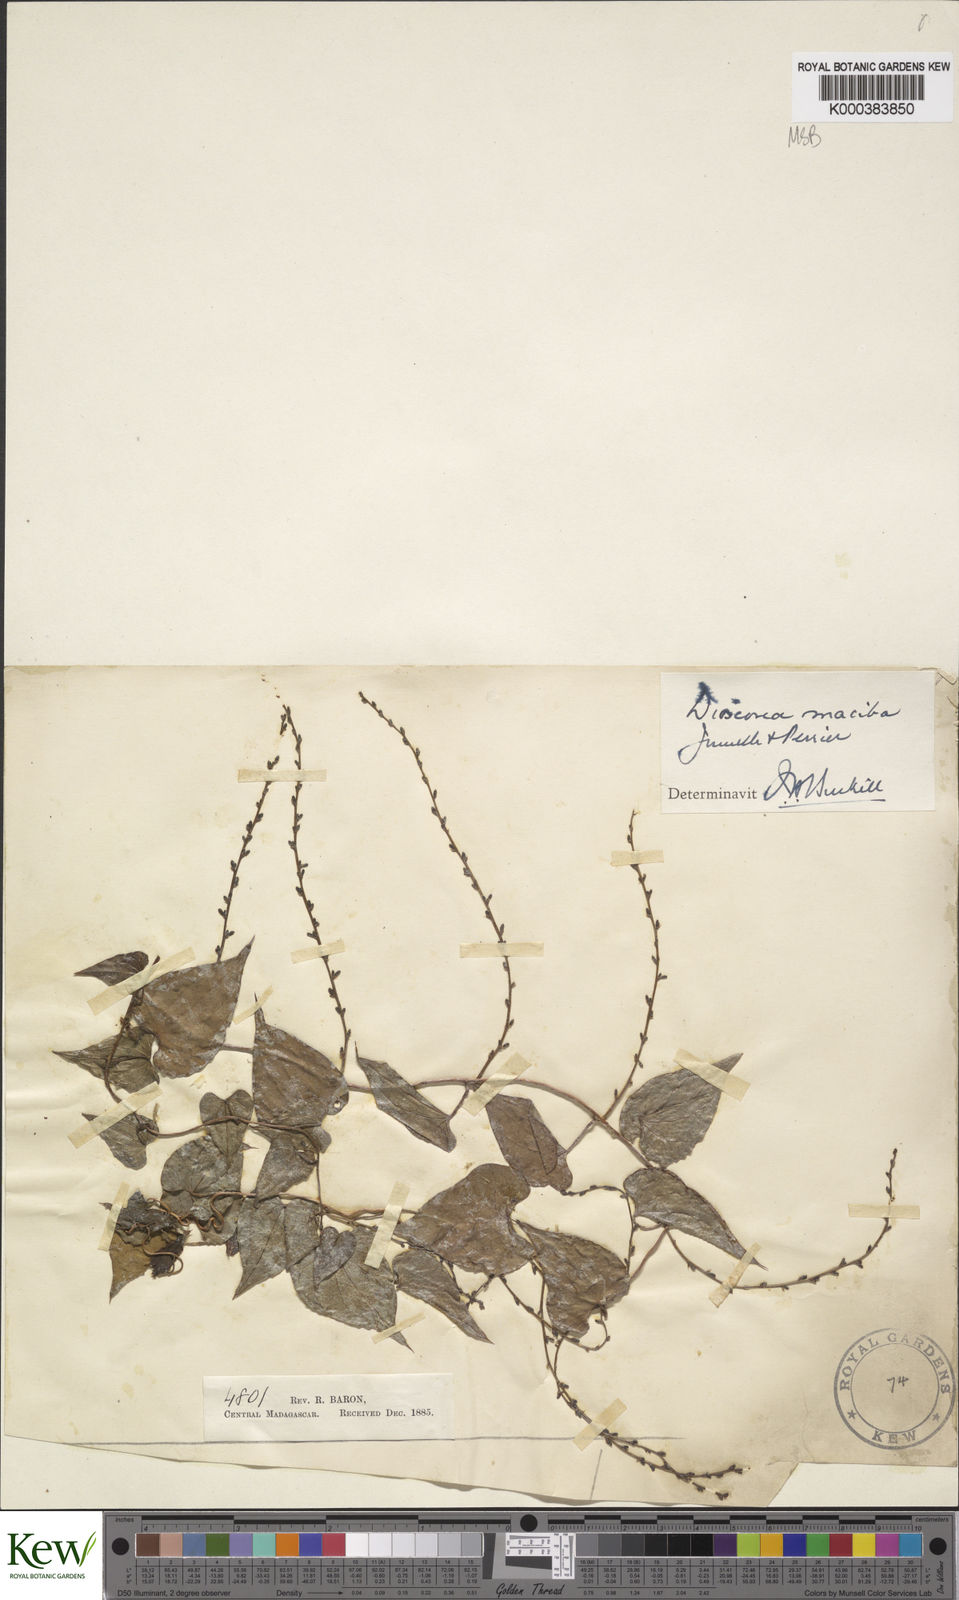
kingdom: Plantae
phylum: Tracheophyta
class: Liliopsida
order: Dioscoreales
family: Dioscoreaceae
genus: Dioscorea
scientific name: Dioscorea
